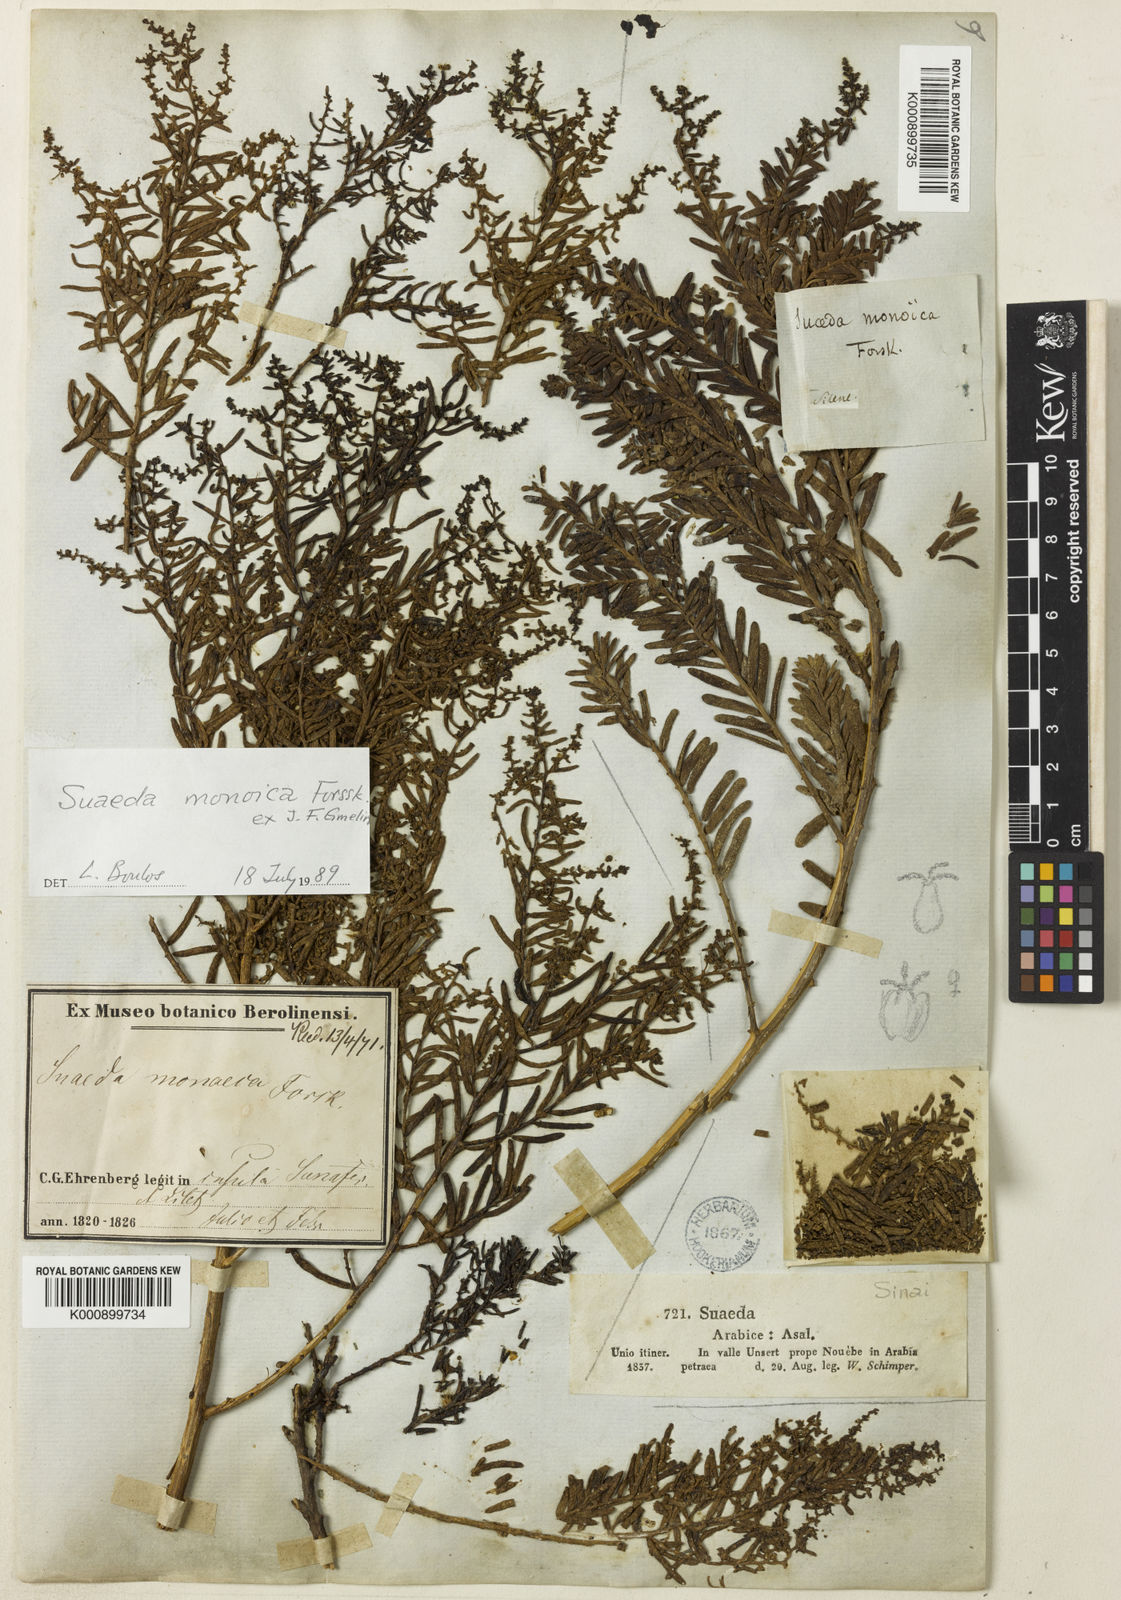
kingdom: Plantae
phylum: Tracheophyta
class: Magnoliopsida
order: Caryophyllales
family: Amaranthaceae
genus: Suaeda
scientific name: Suaeda monoica
